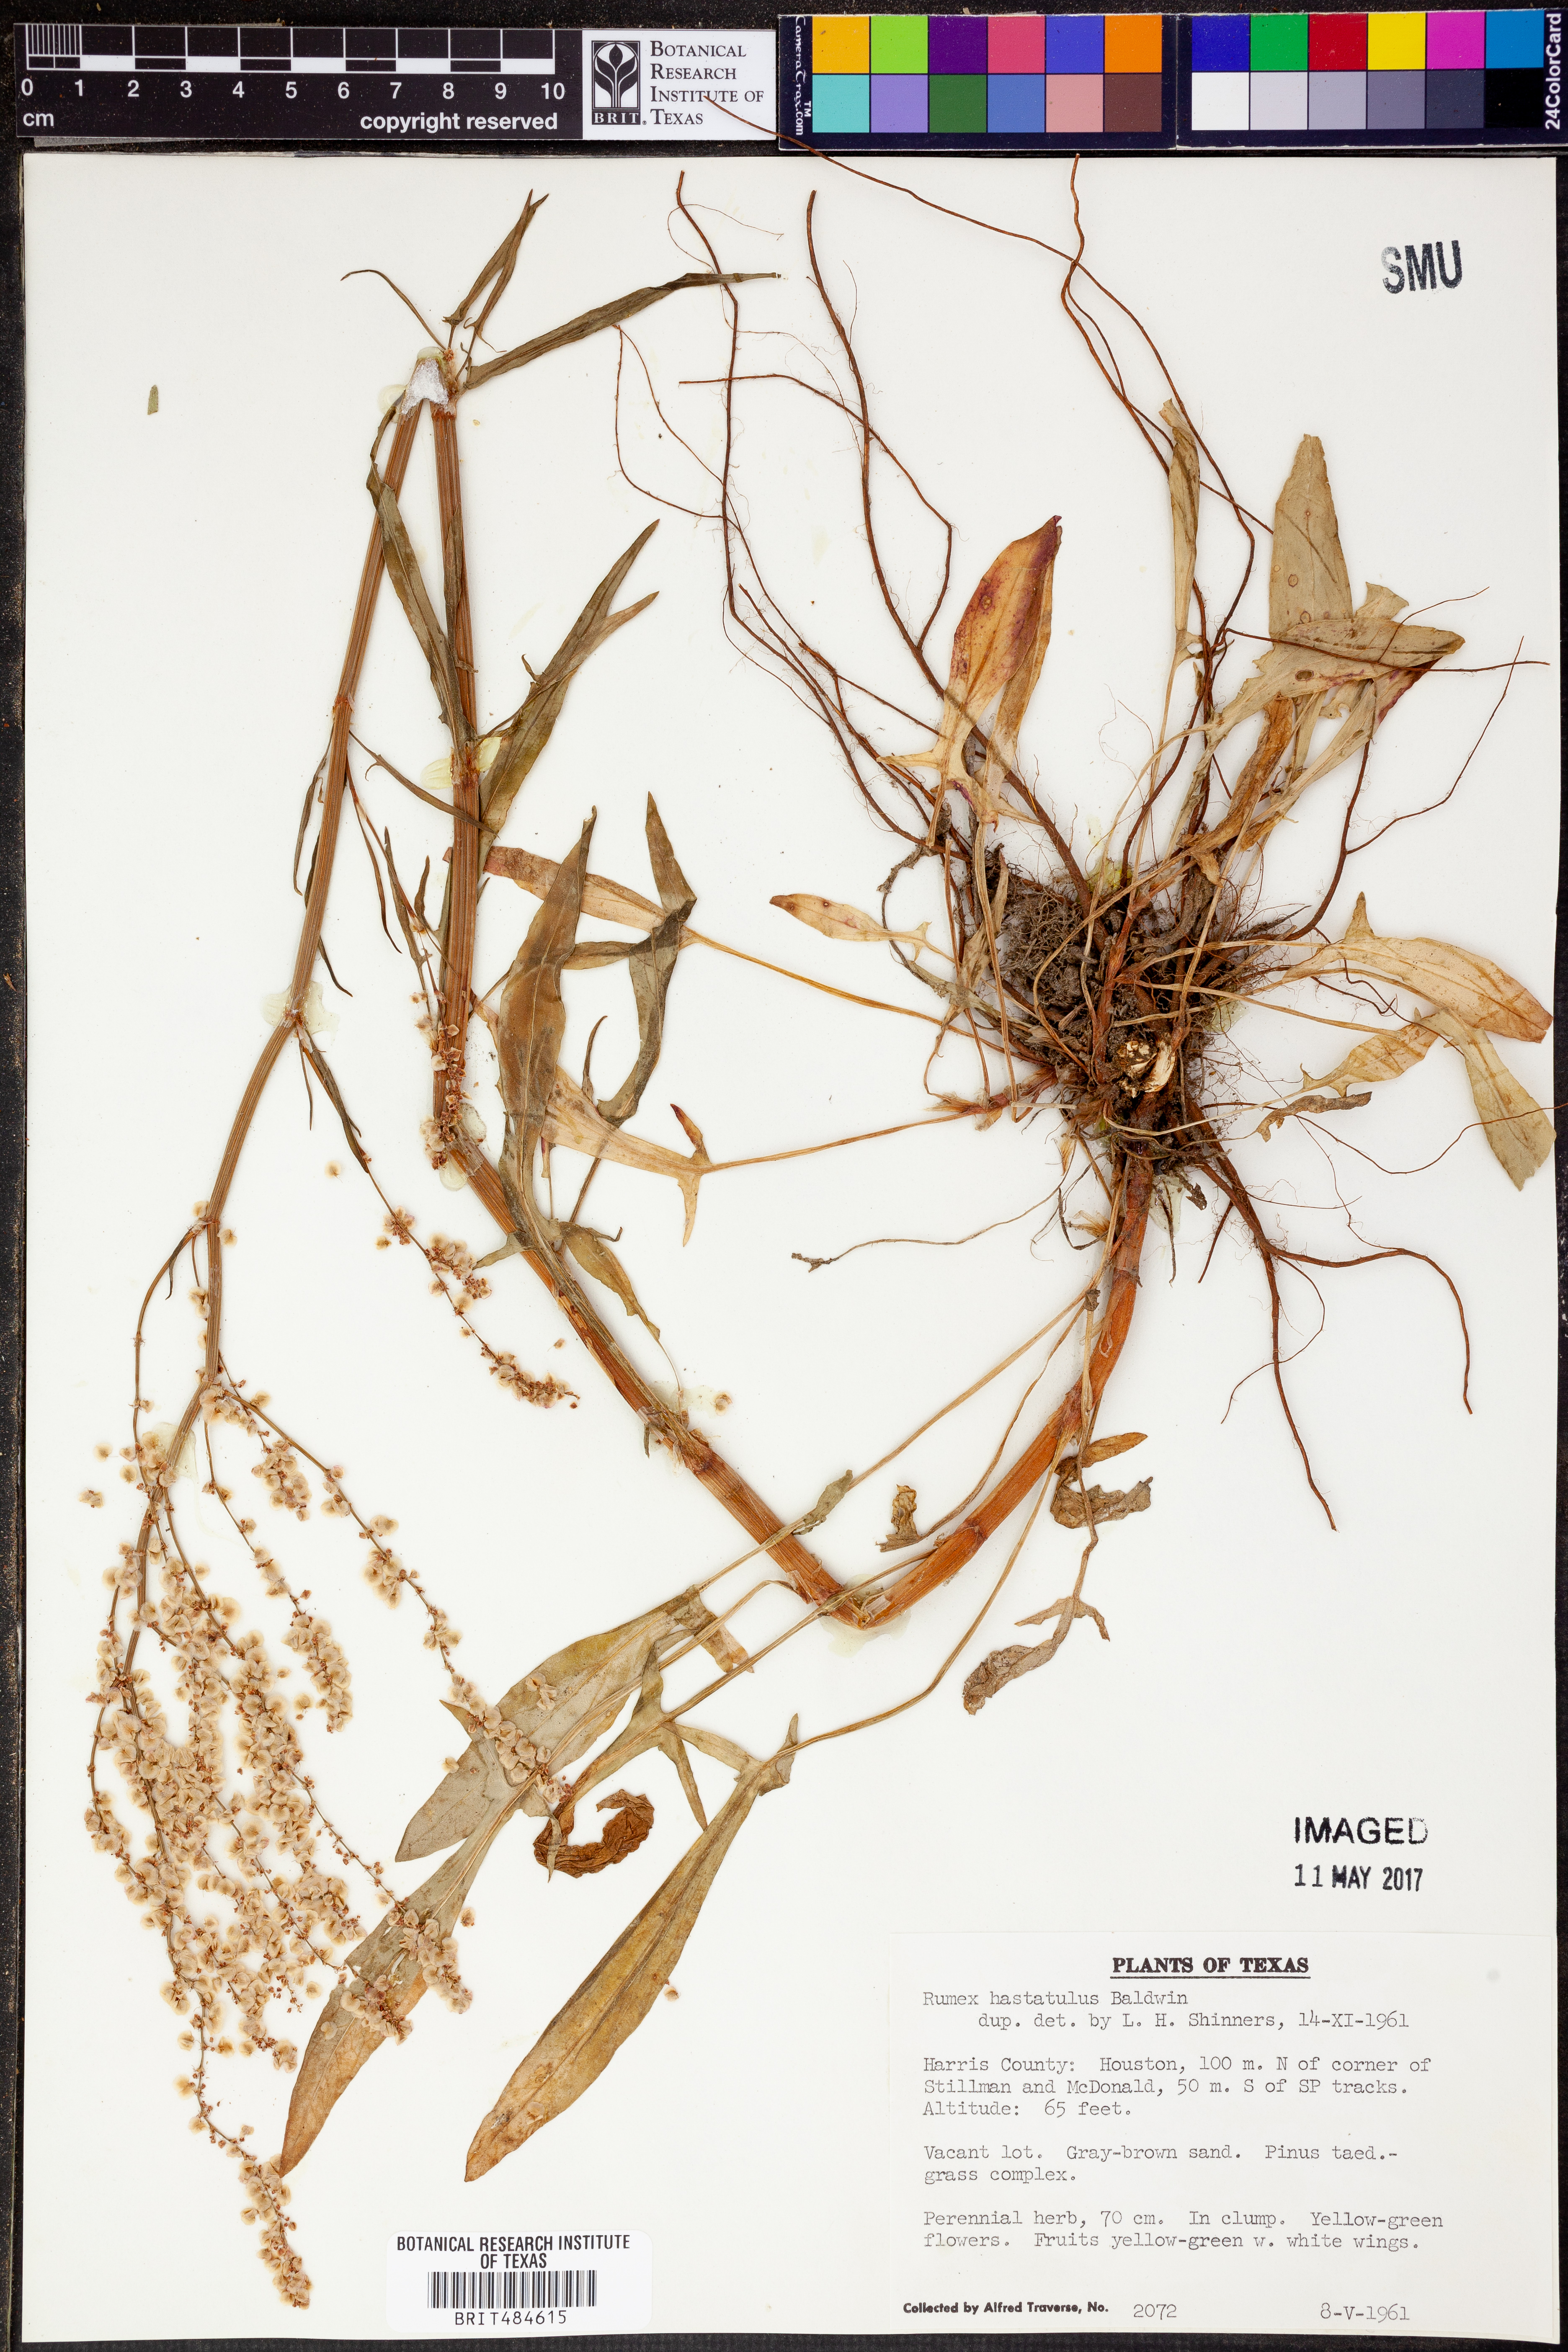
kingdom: Plantae
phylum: Tracheophyta
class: Magnoliopsida
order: Caryophyllales
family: Polygonaceae
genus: Rumex
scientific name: Rumex hastatulus
